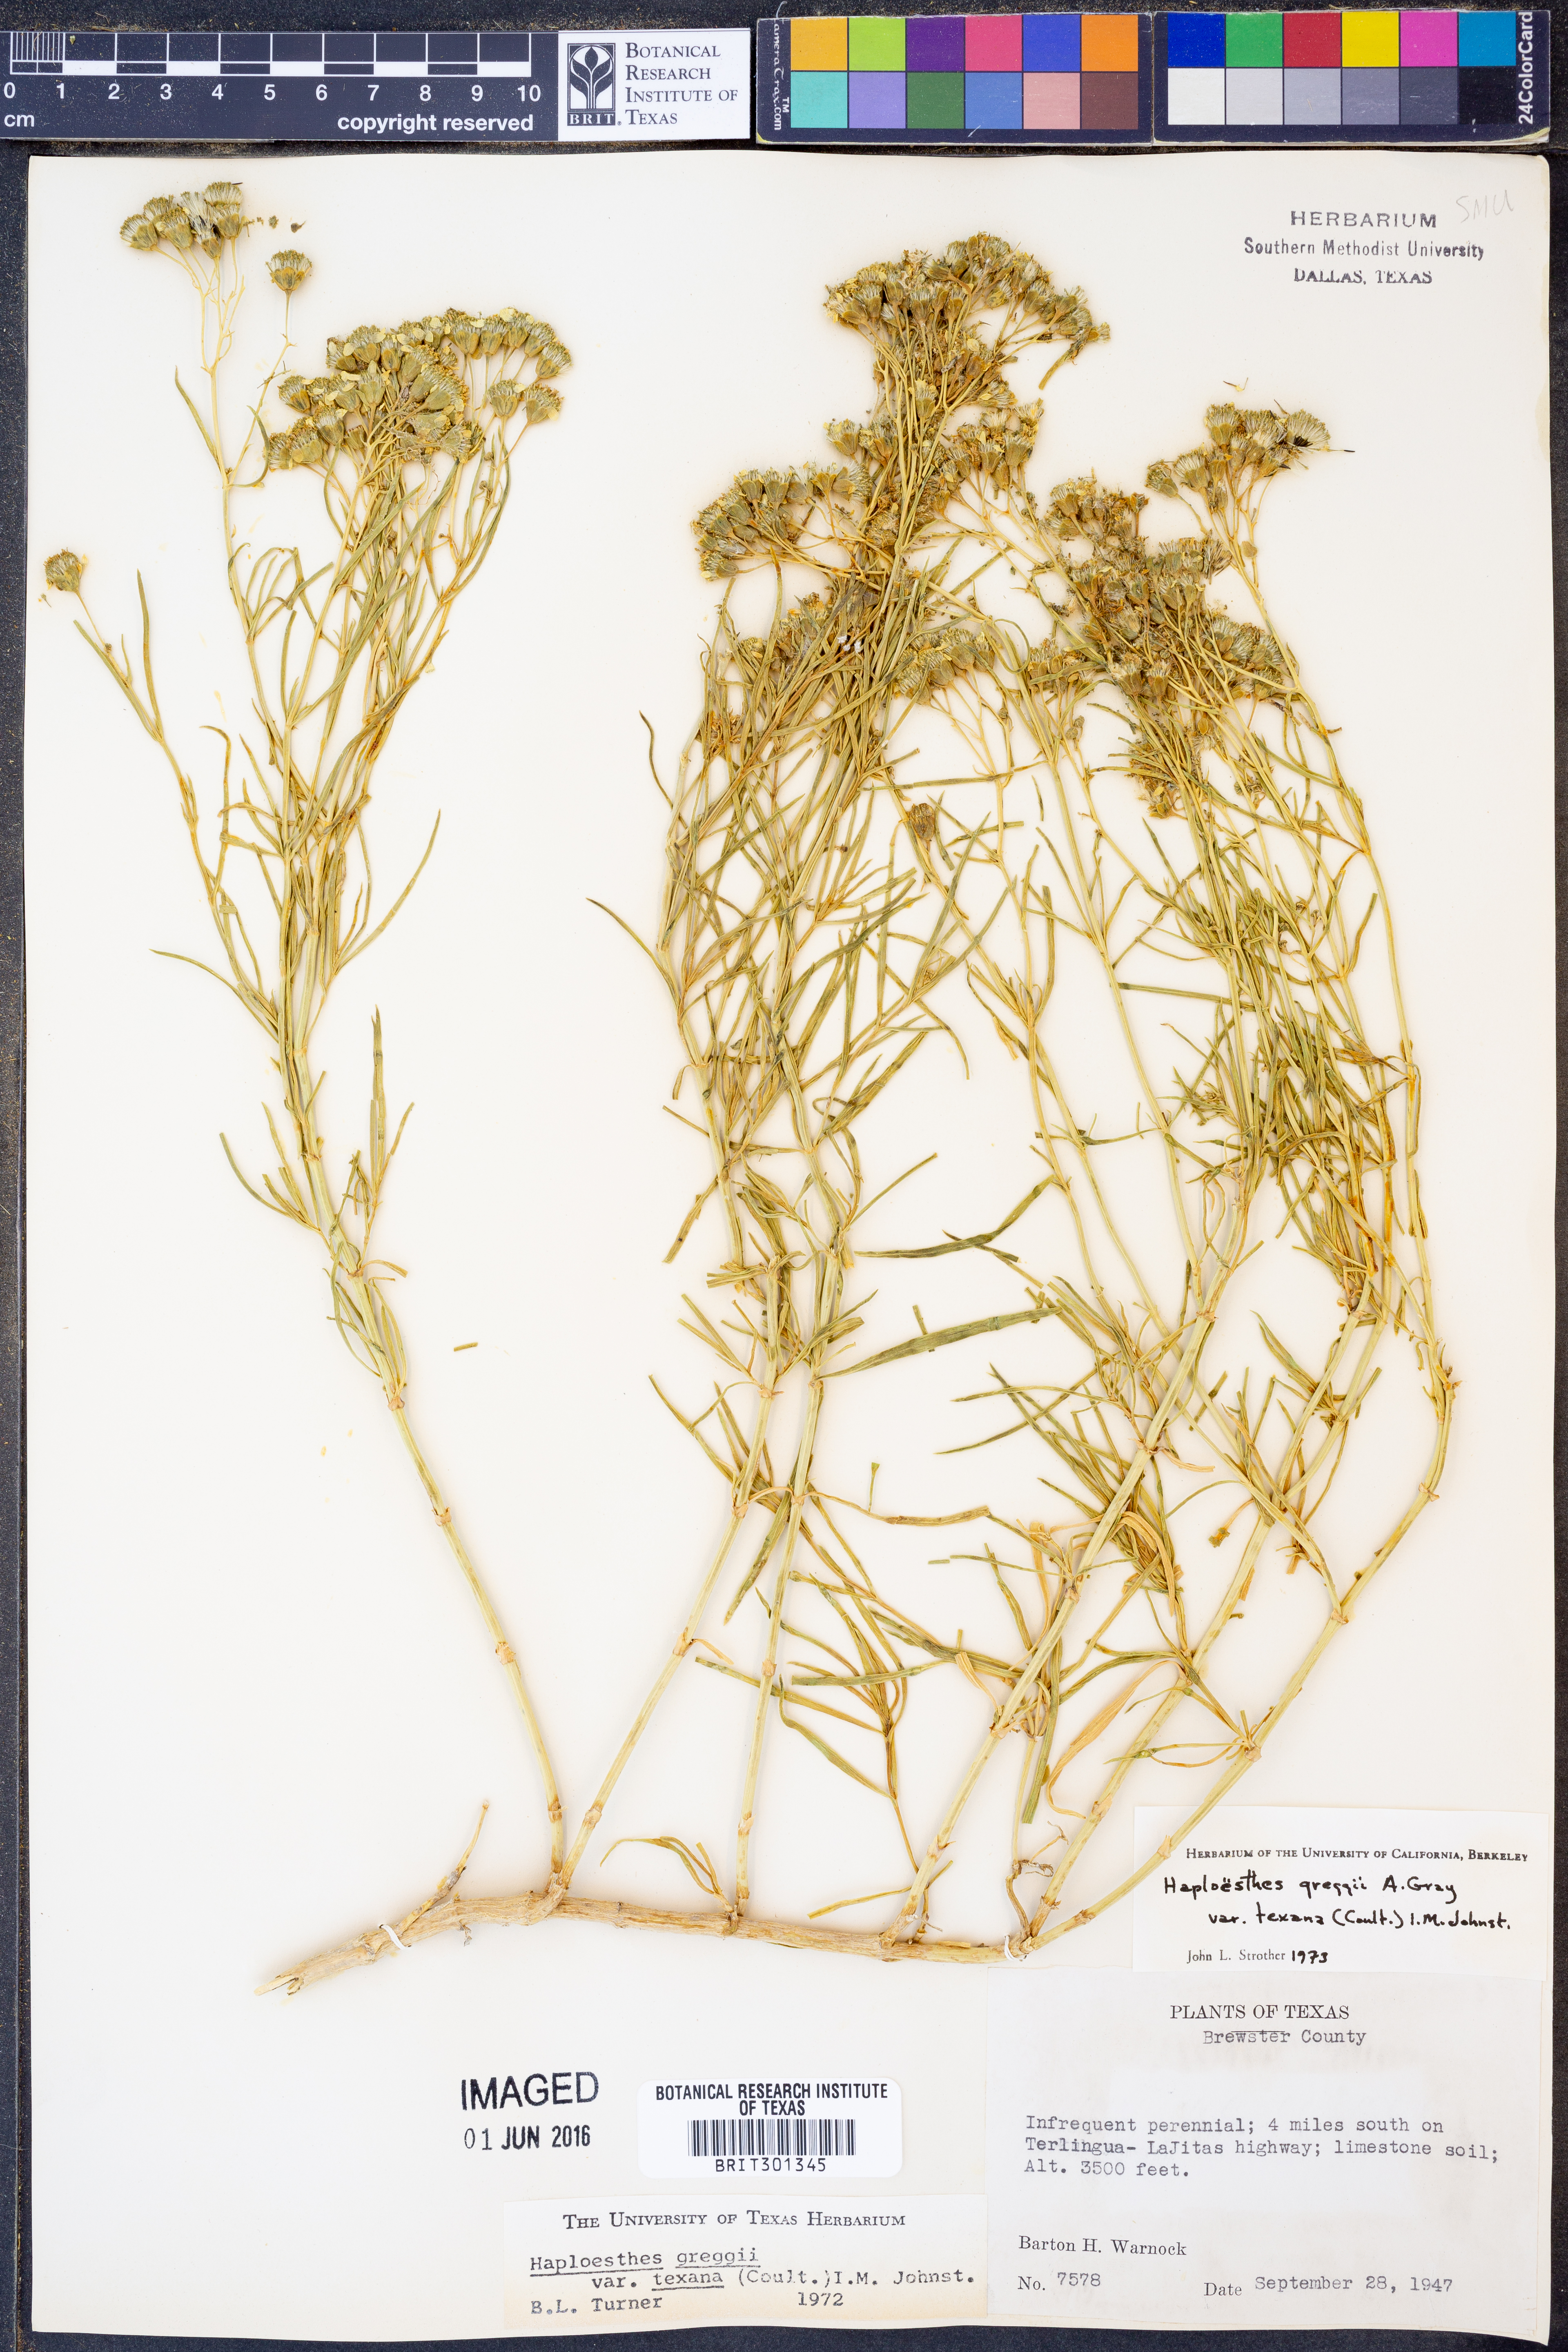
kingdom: Plantae
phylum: Tracheophyta
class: Magnoliopsida
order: Asterales
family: Asteraceae
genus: Haploesthes
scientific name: Haploesthes greggii
